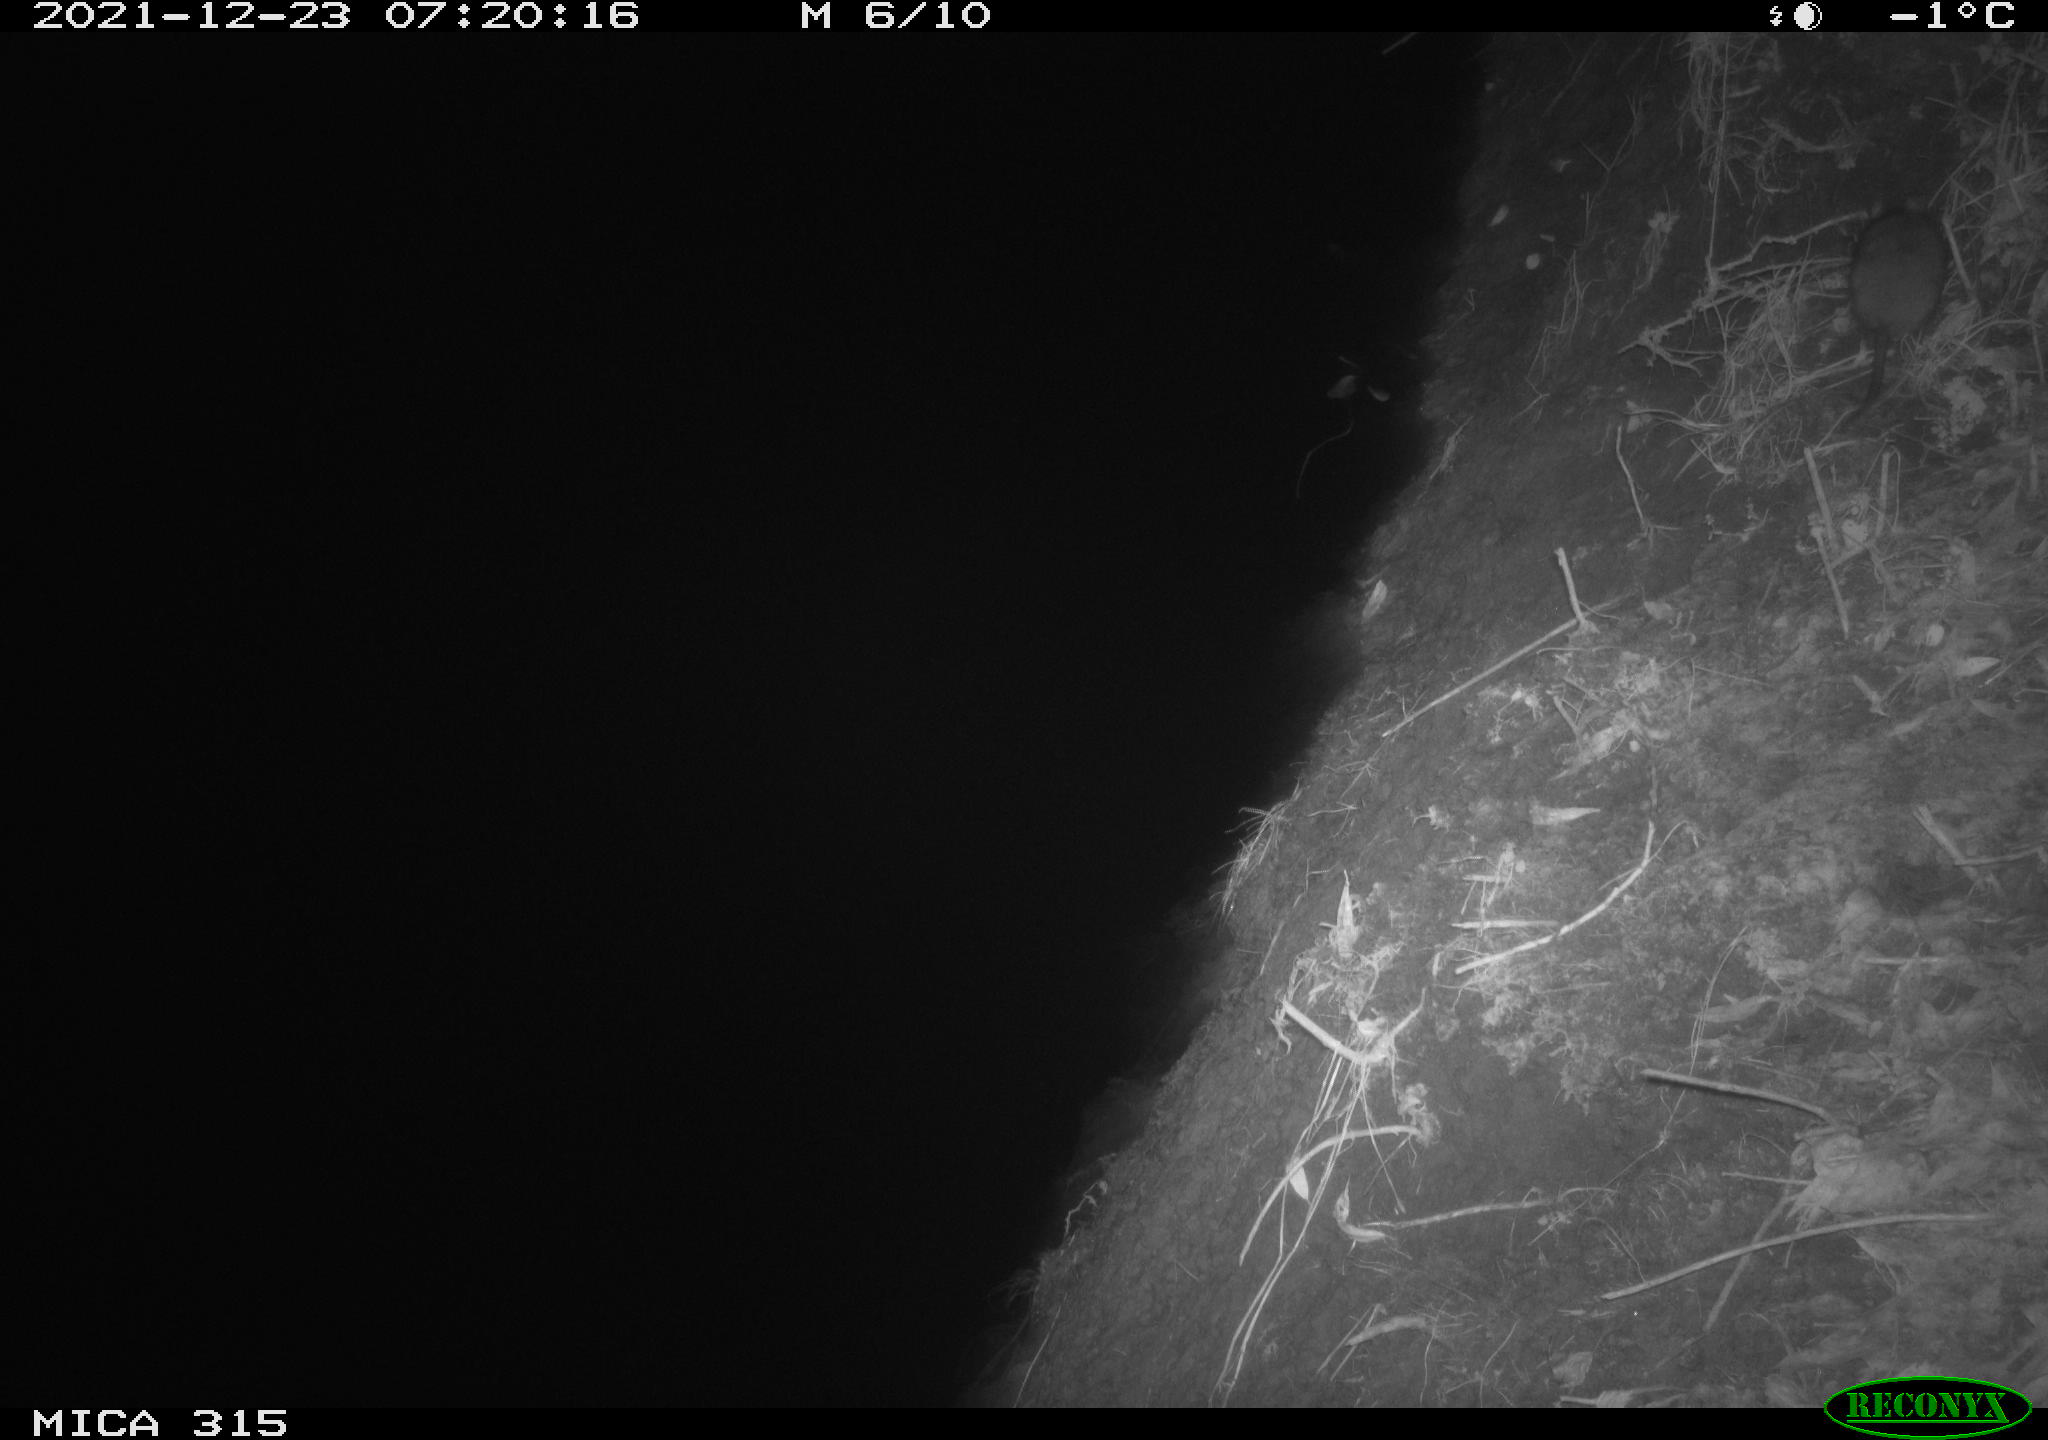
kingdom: Animalia
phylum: Chordata
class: Mammalia
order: Rodentia
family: Muridae
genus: Rattus
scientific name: Rattus norvegicus
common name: Brown rat
